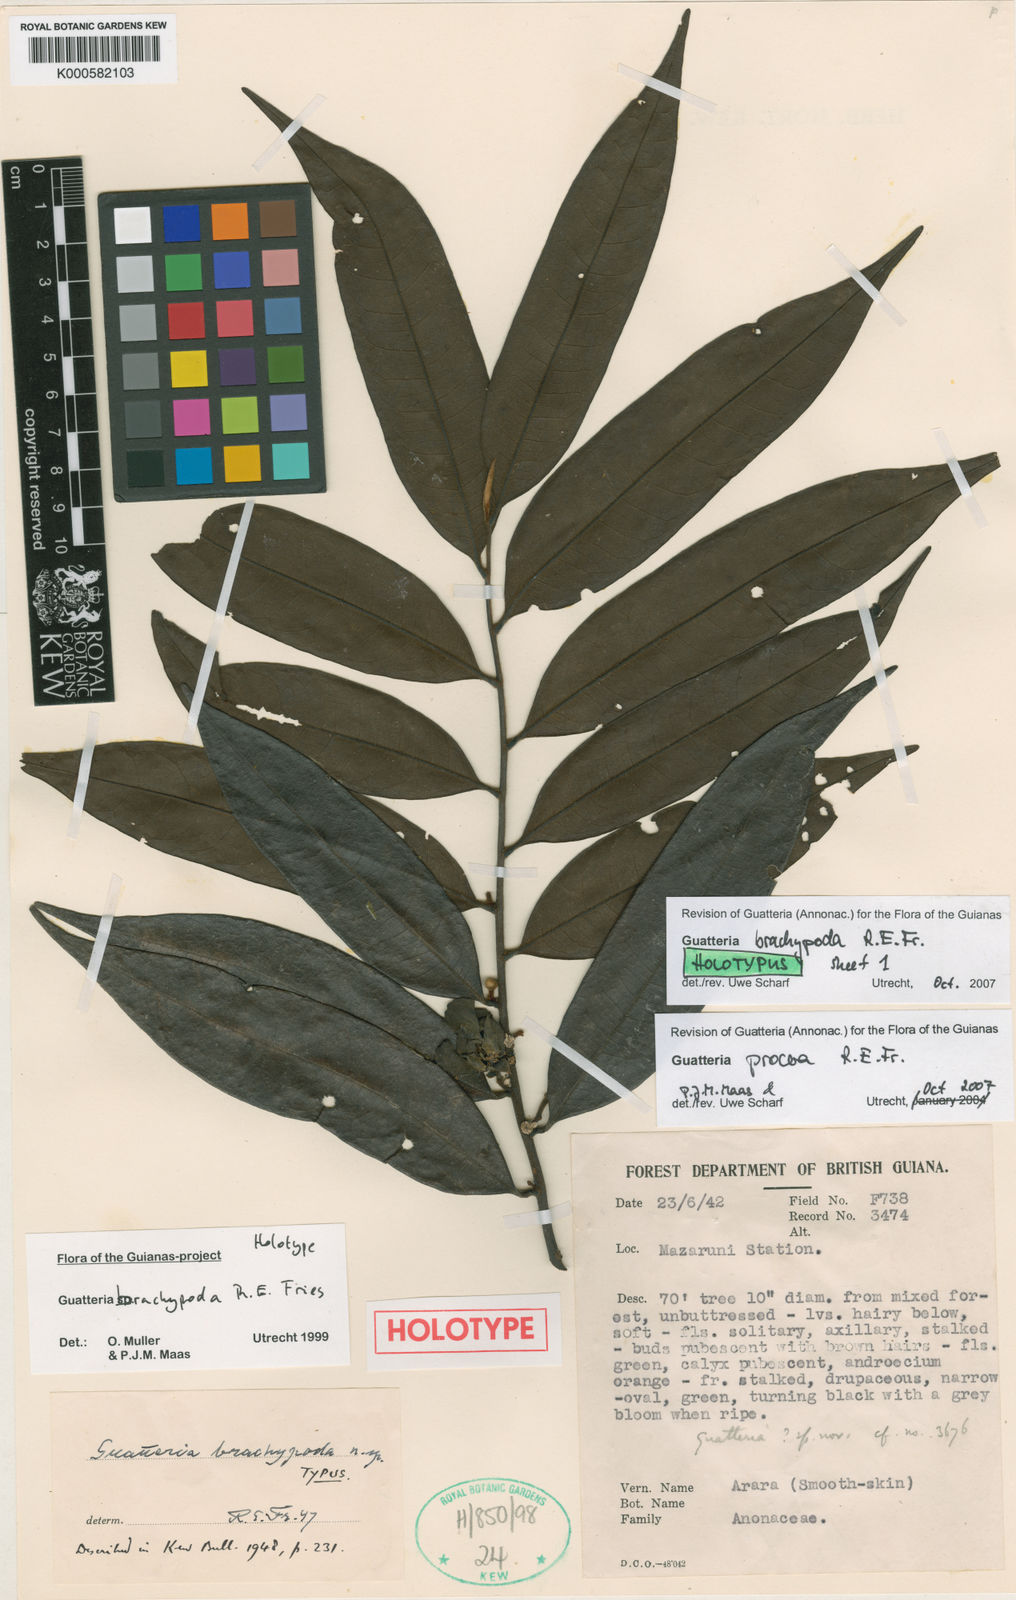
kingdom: Plantae
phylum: Tracheophyta
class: Magnoliopsida
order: Magnoliales
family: Annonaceae
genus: Guatteria
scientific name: Guatteria procera
